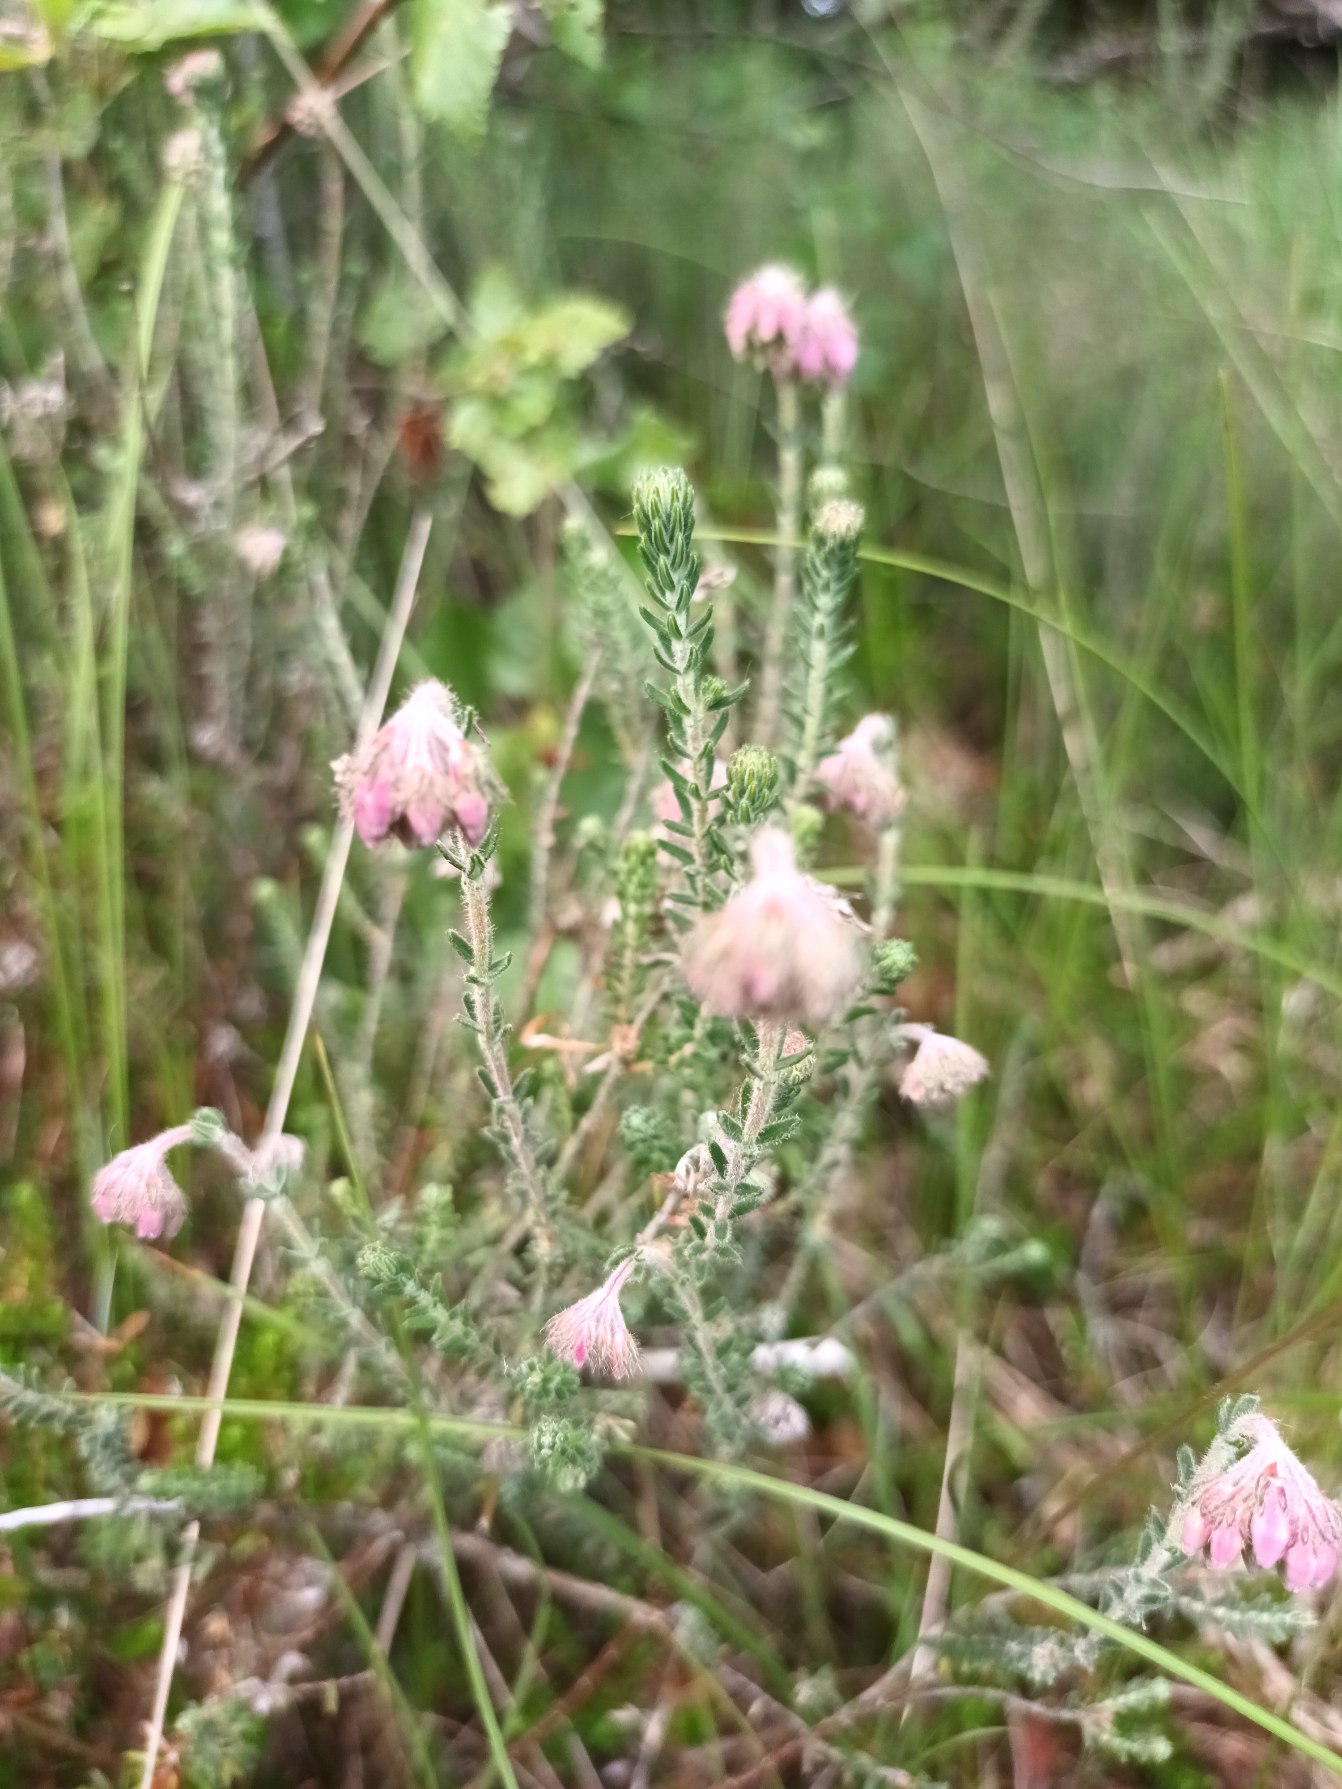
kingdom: Plantae
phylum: Tracheophyta
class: Magnoliopsida
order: Ericales
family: Ericaceae
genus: Erica
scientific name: Erica tetralix
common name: Klokkelyng
